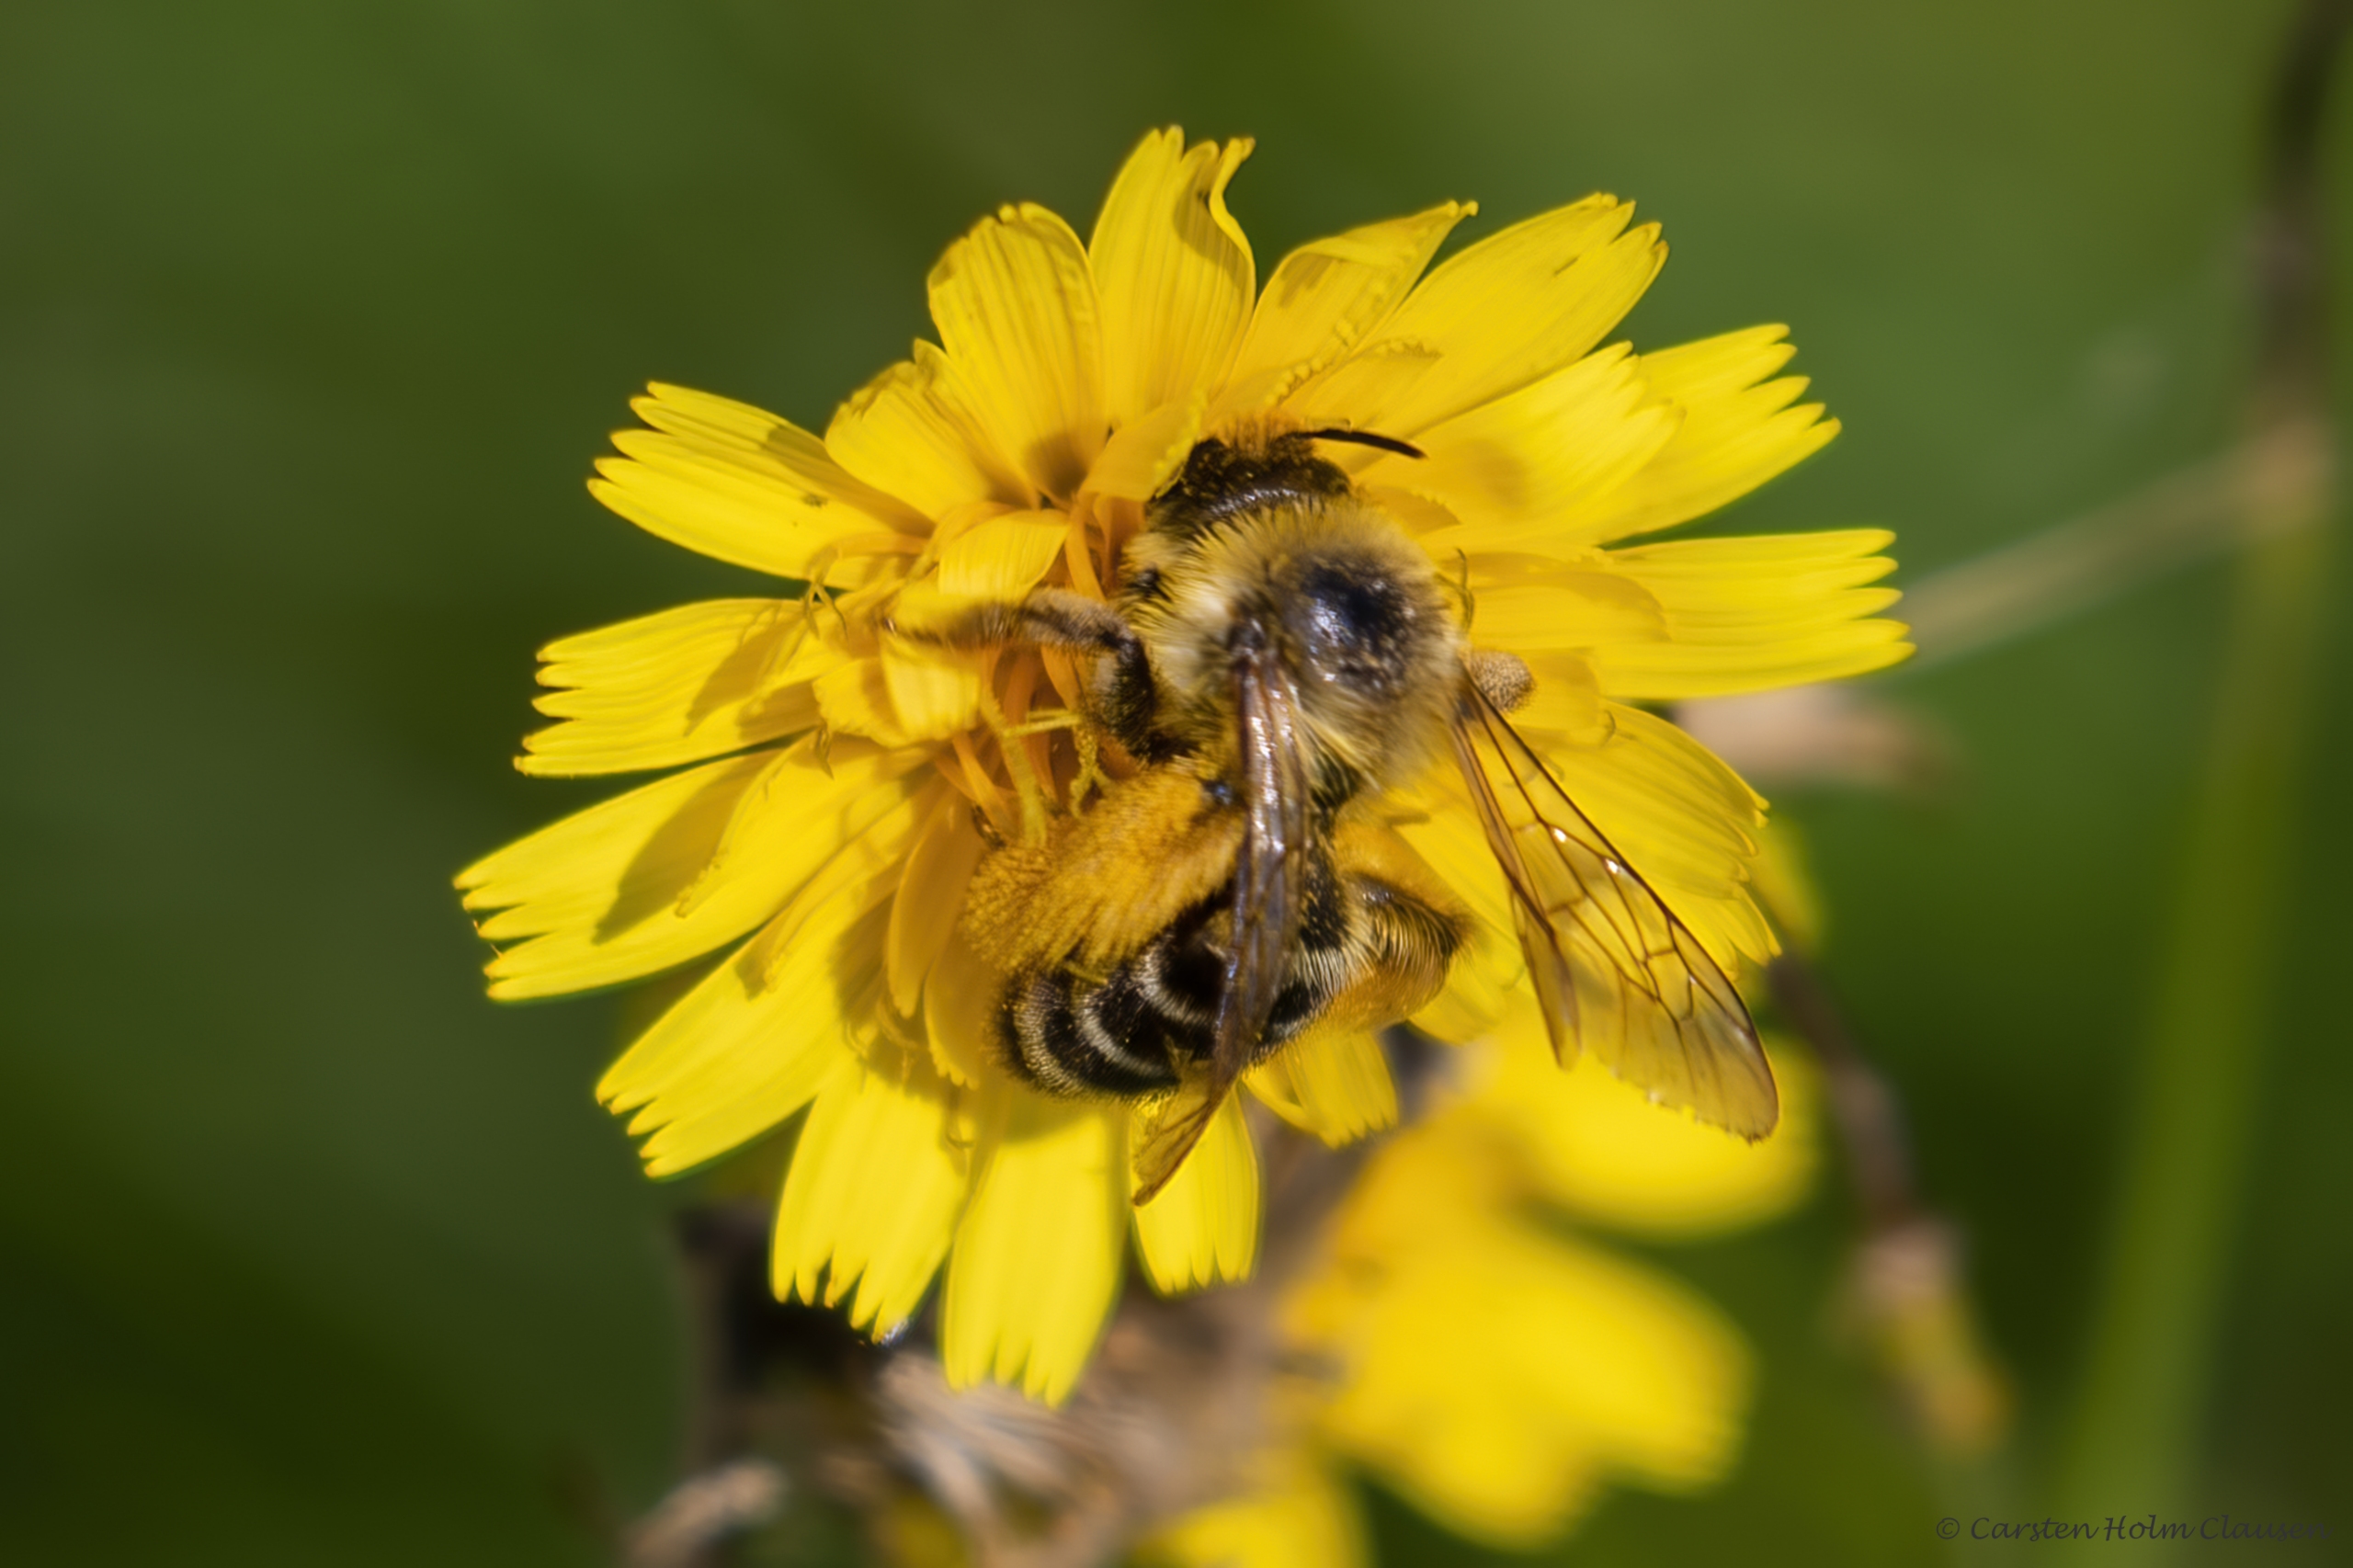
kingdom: Animalia
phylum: Arthropoda
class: Insecta
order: Hymenoptera
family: Melittidae
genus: Dasypoda
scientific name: Dasypoda hirtipes
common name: Pragtbuksebi
